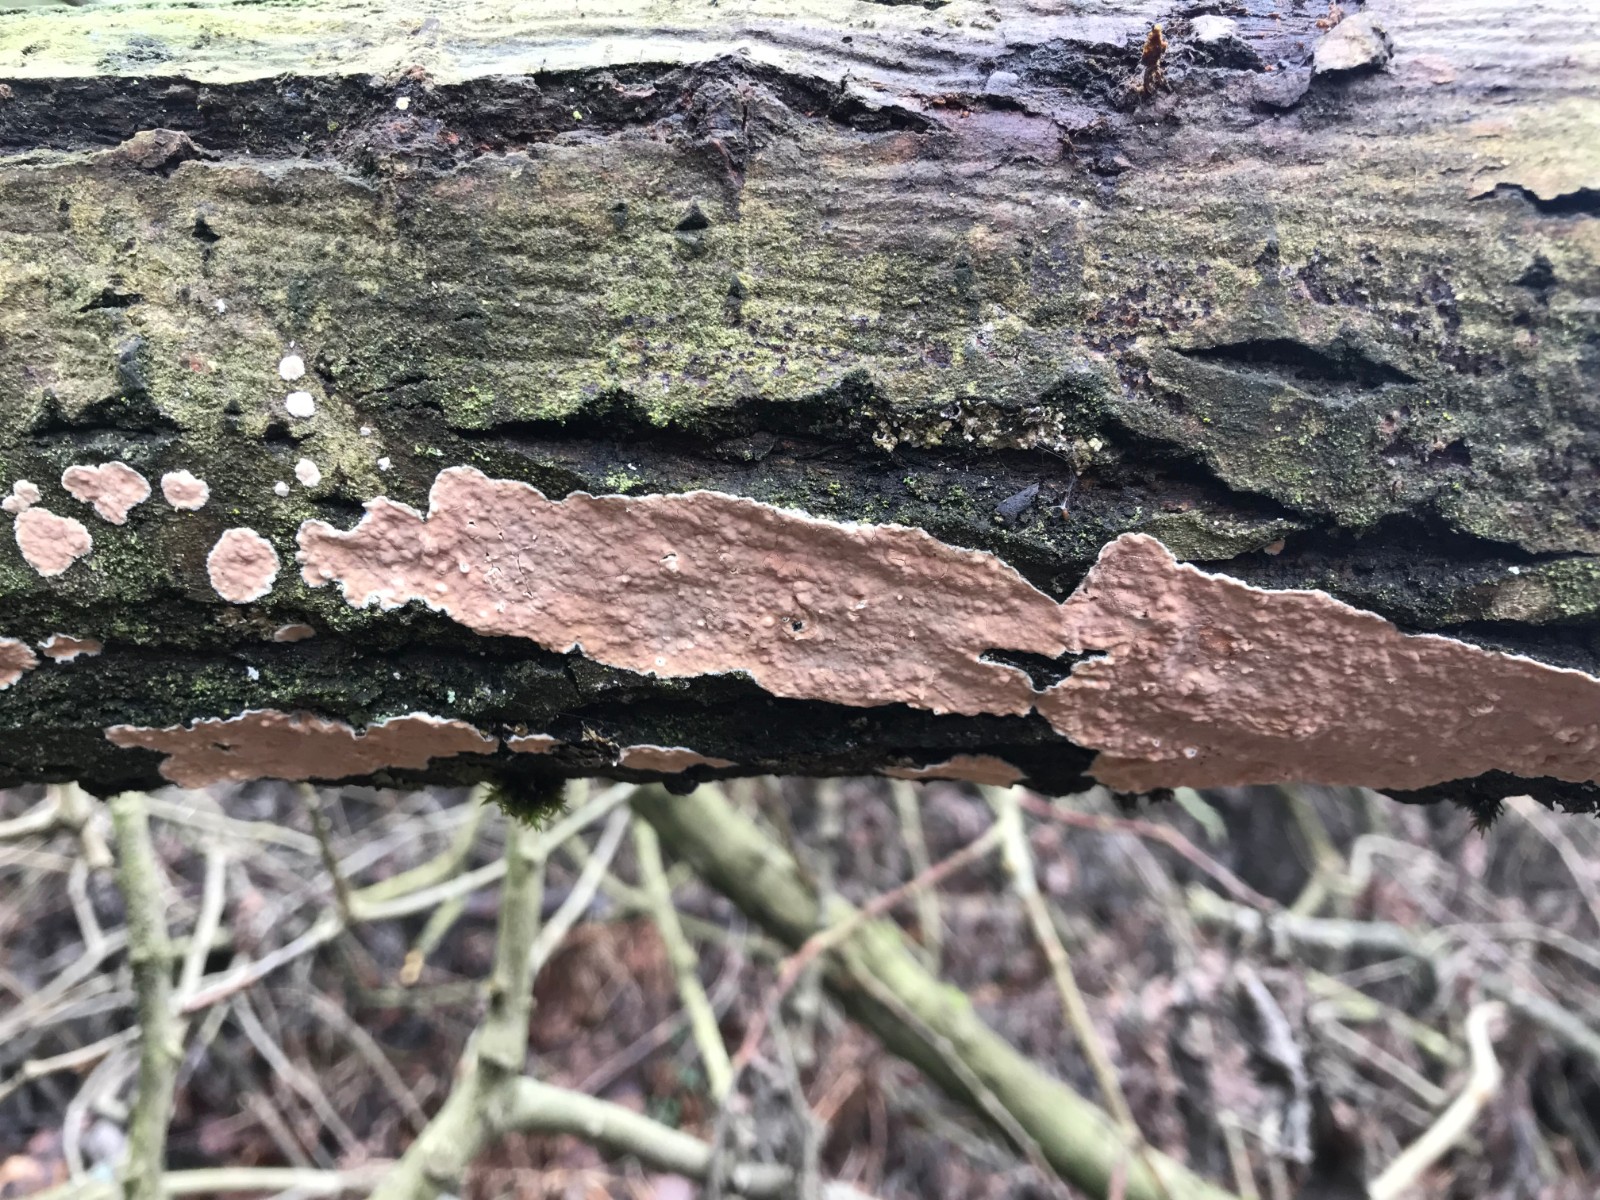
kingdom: Fungi
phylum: Basidiomycota
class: Agaricomycetes
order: Corticiales
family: Corticiaceae
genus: Corticium
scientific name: Corticium roseum
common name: rosa barkskind
